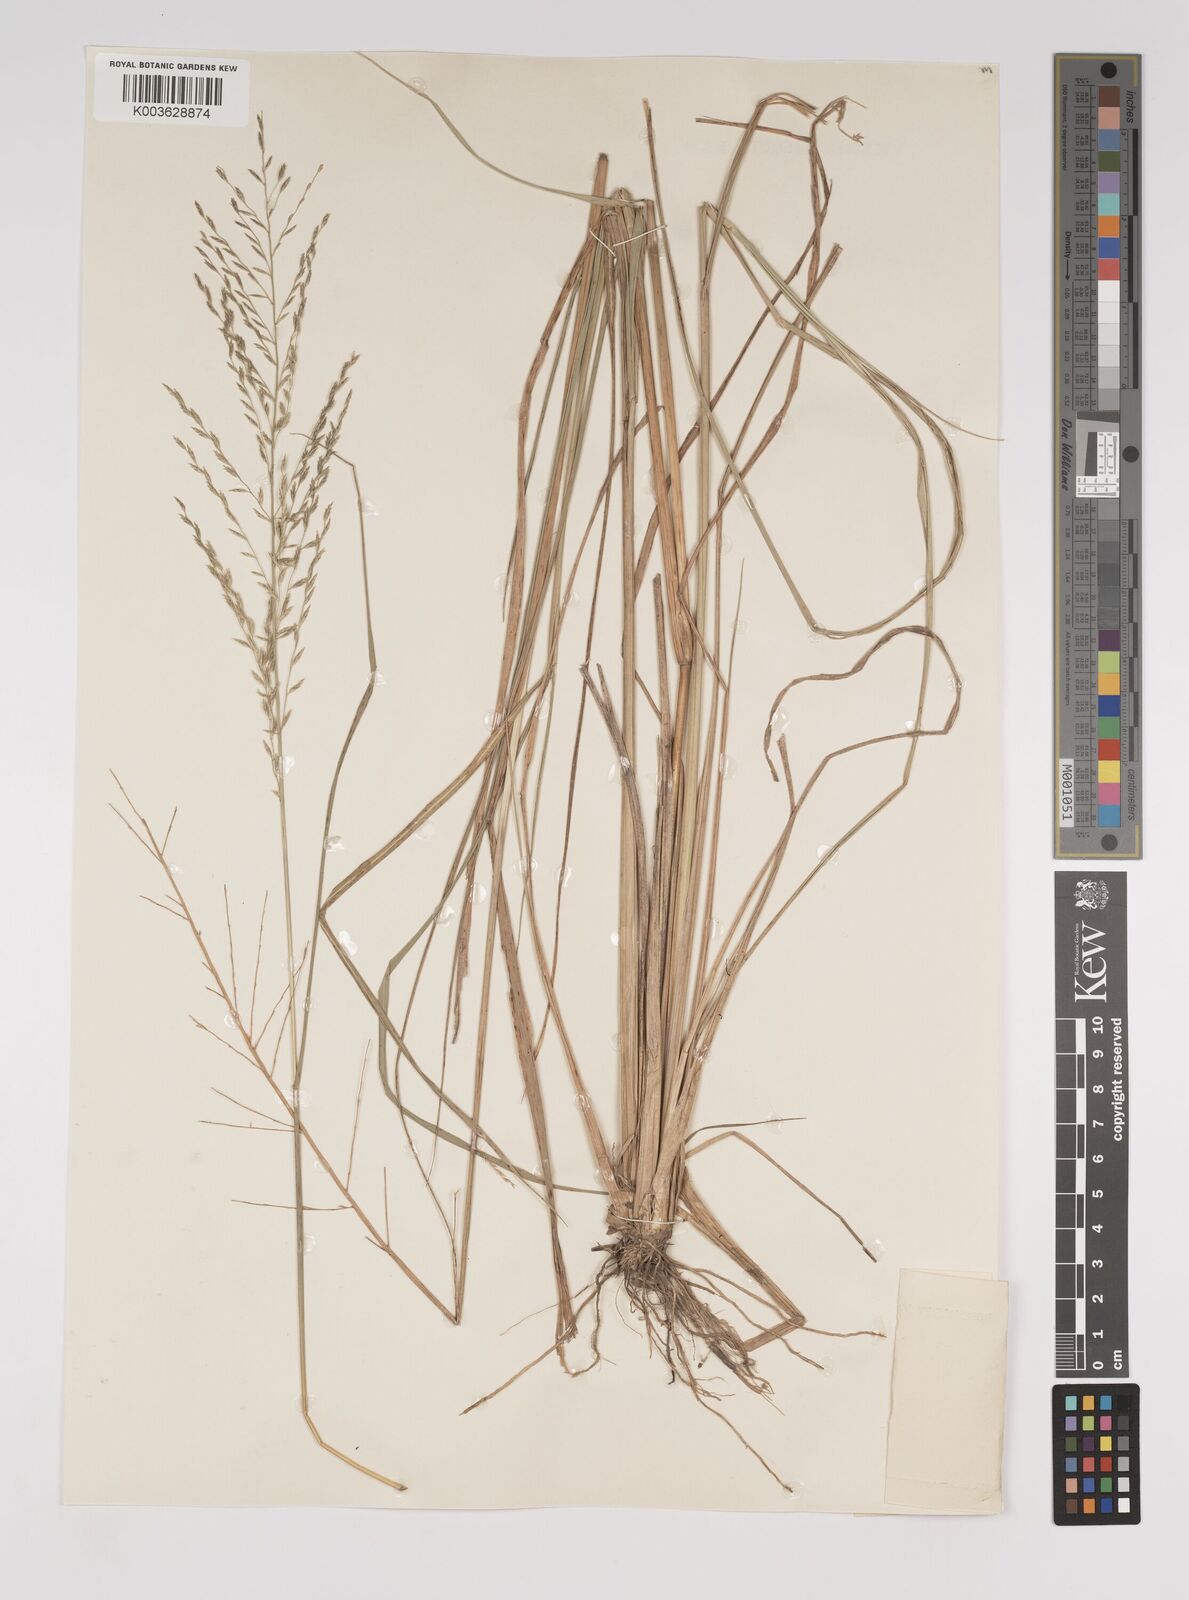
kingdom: Plantae
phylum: Tracheophyta
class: Liliopsida
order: Poales
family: Poaceae
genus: Diplachne
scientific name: Diplachne fusca
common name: Brown beetle grass
